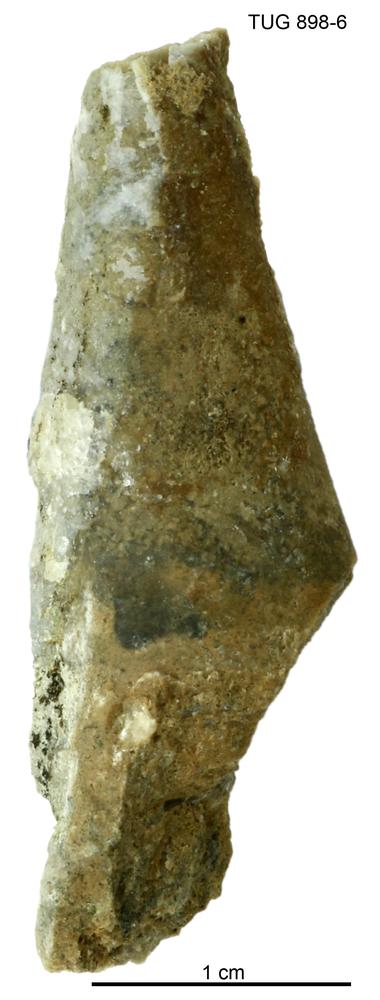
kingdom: Animalia
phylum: Annelida
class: Polychaeta
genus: Hyolithes
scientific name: Hyolithes
